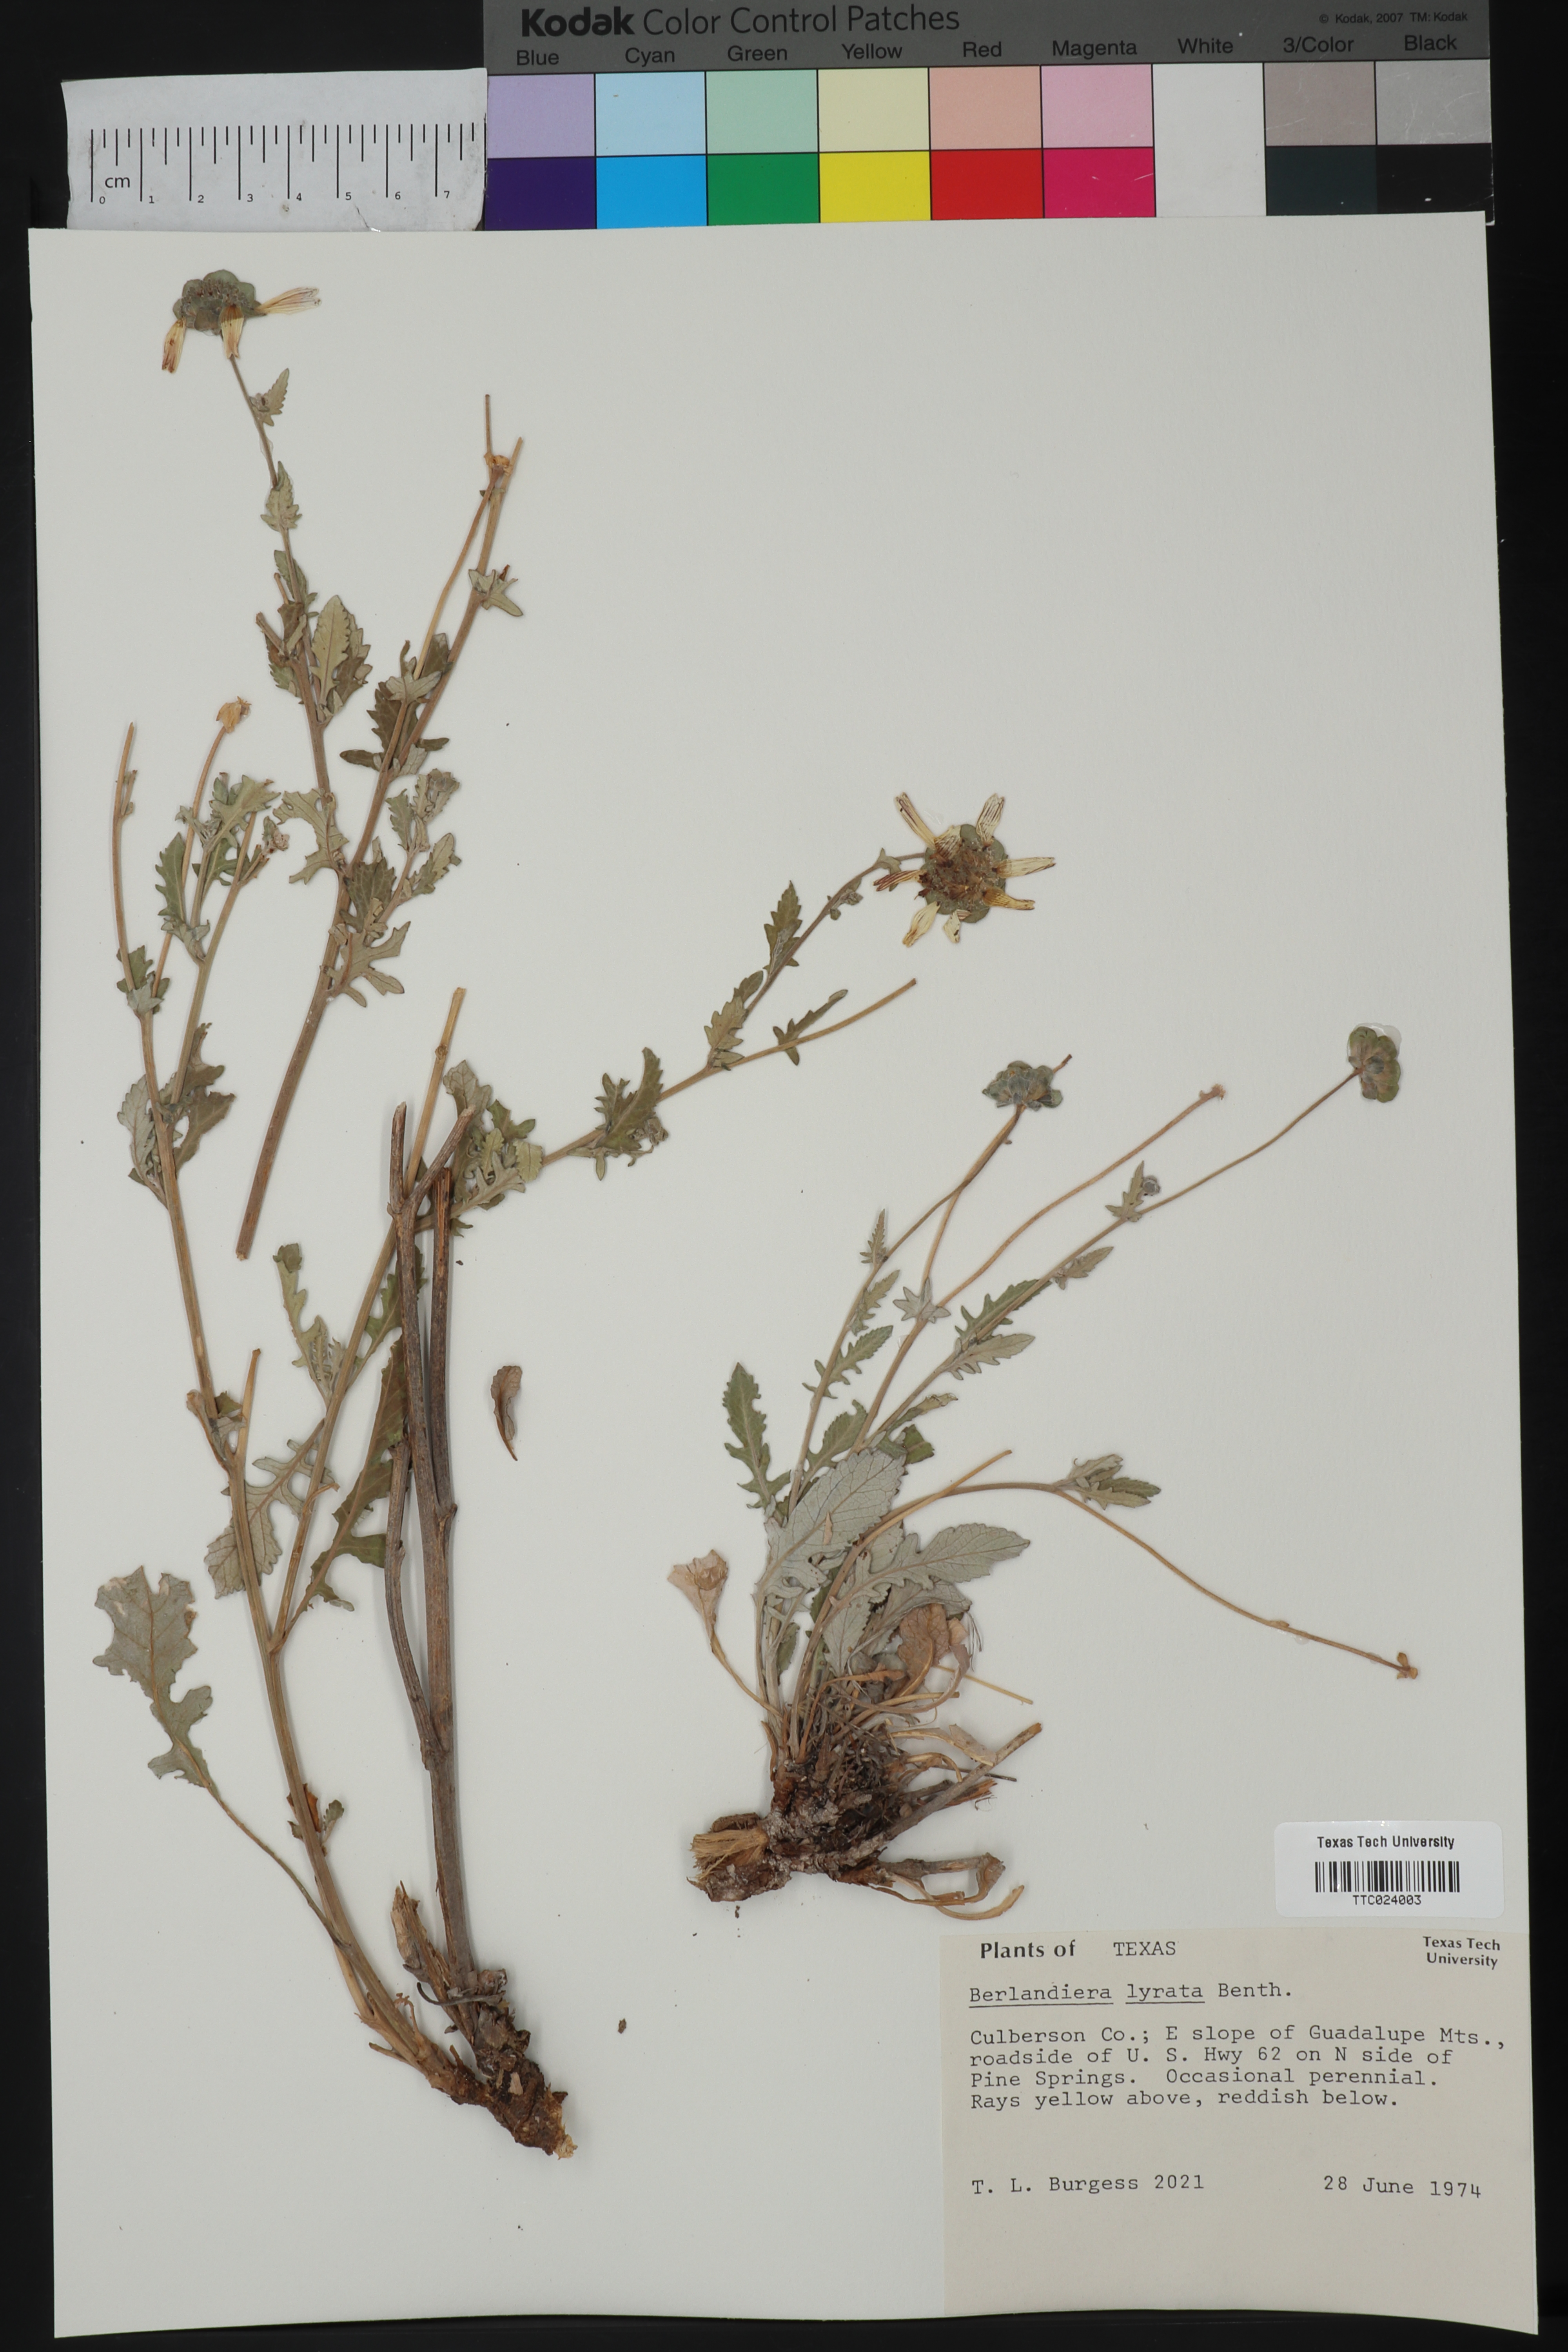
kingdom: Plantae
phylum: Tracheophyta
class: Magnoliopsida
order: Asterales
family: Asteraceae
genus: Berlandiera
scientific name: Berlandiera lyrata
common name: Chocolate-flower
